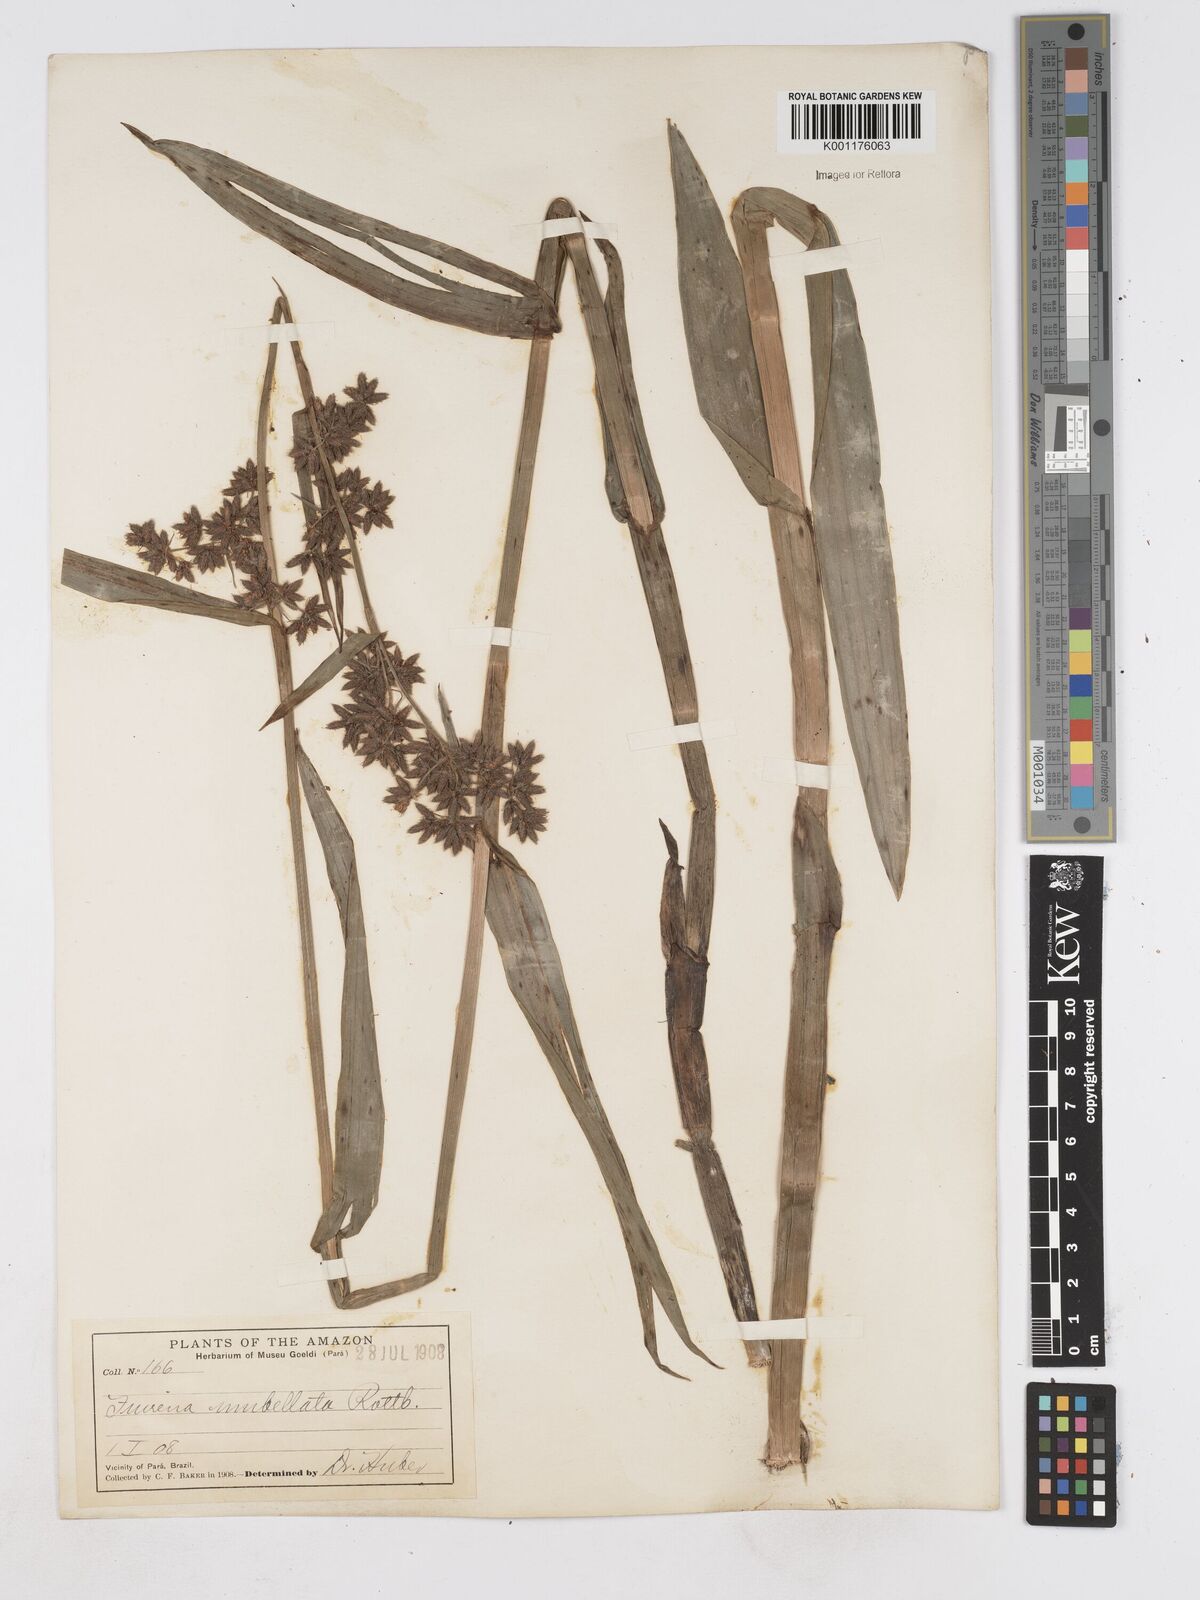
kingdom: Plantae
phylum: Tracheophyta
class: Liliopsida
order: Poales
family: Cyperaceae
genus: Fuirena
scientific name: Fuirena umbellata
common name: Yefen
